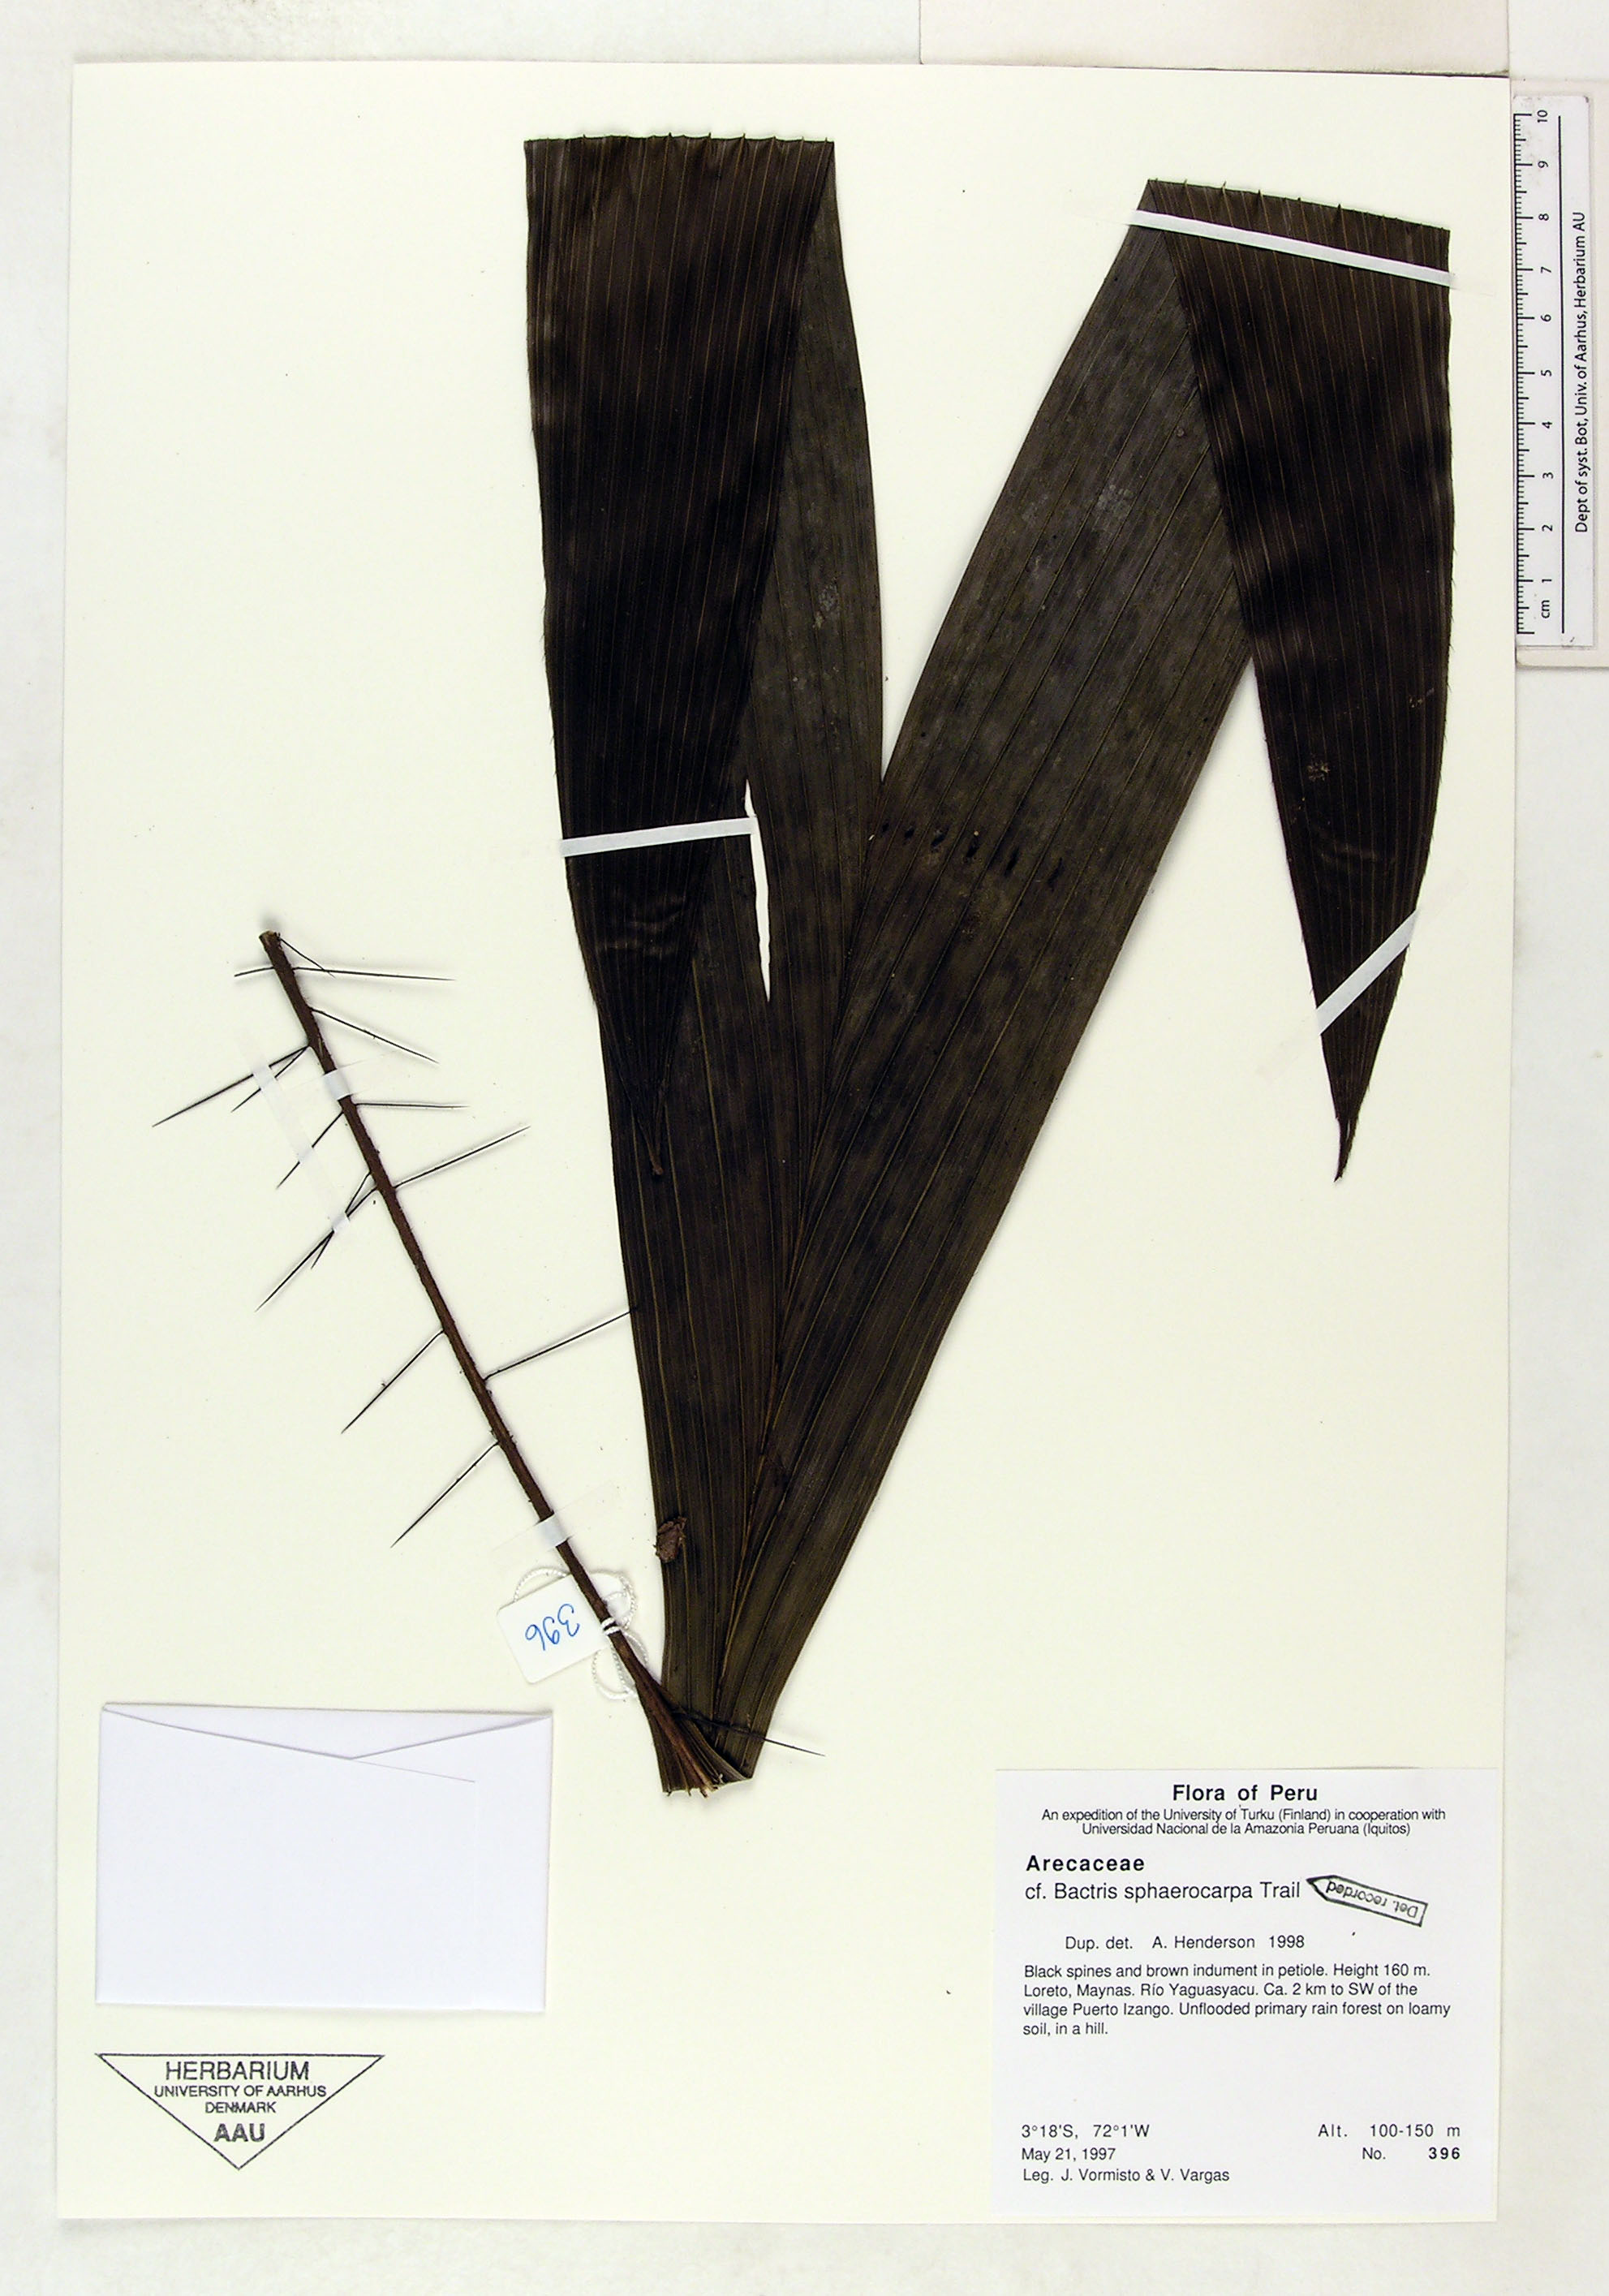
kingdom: Plantae
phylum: Tracheophyta
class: Liliopsida
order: Arecales
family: Arecaceae
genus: Bactris
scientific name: Bactris sphaerocarpa
